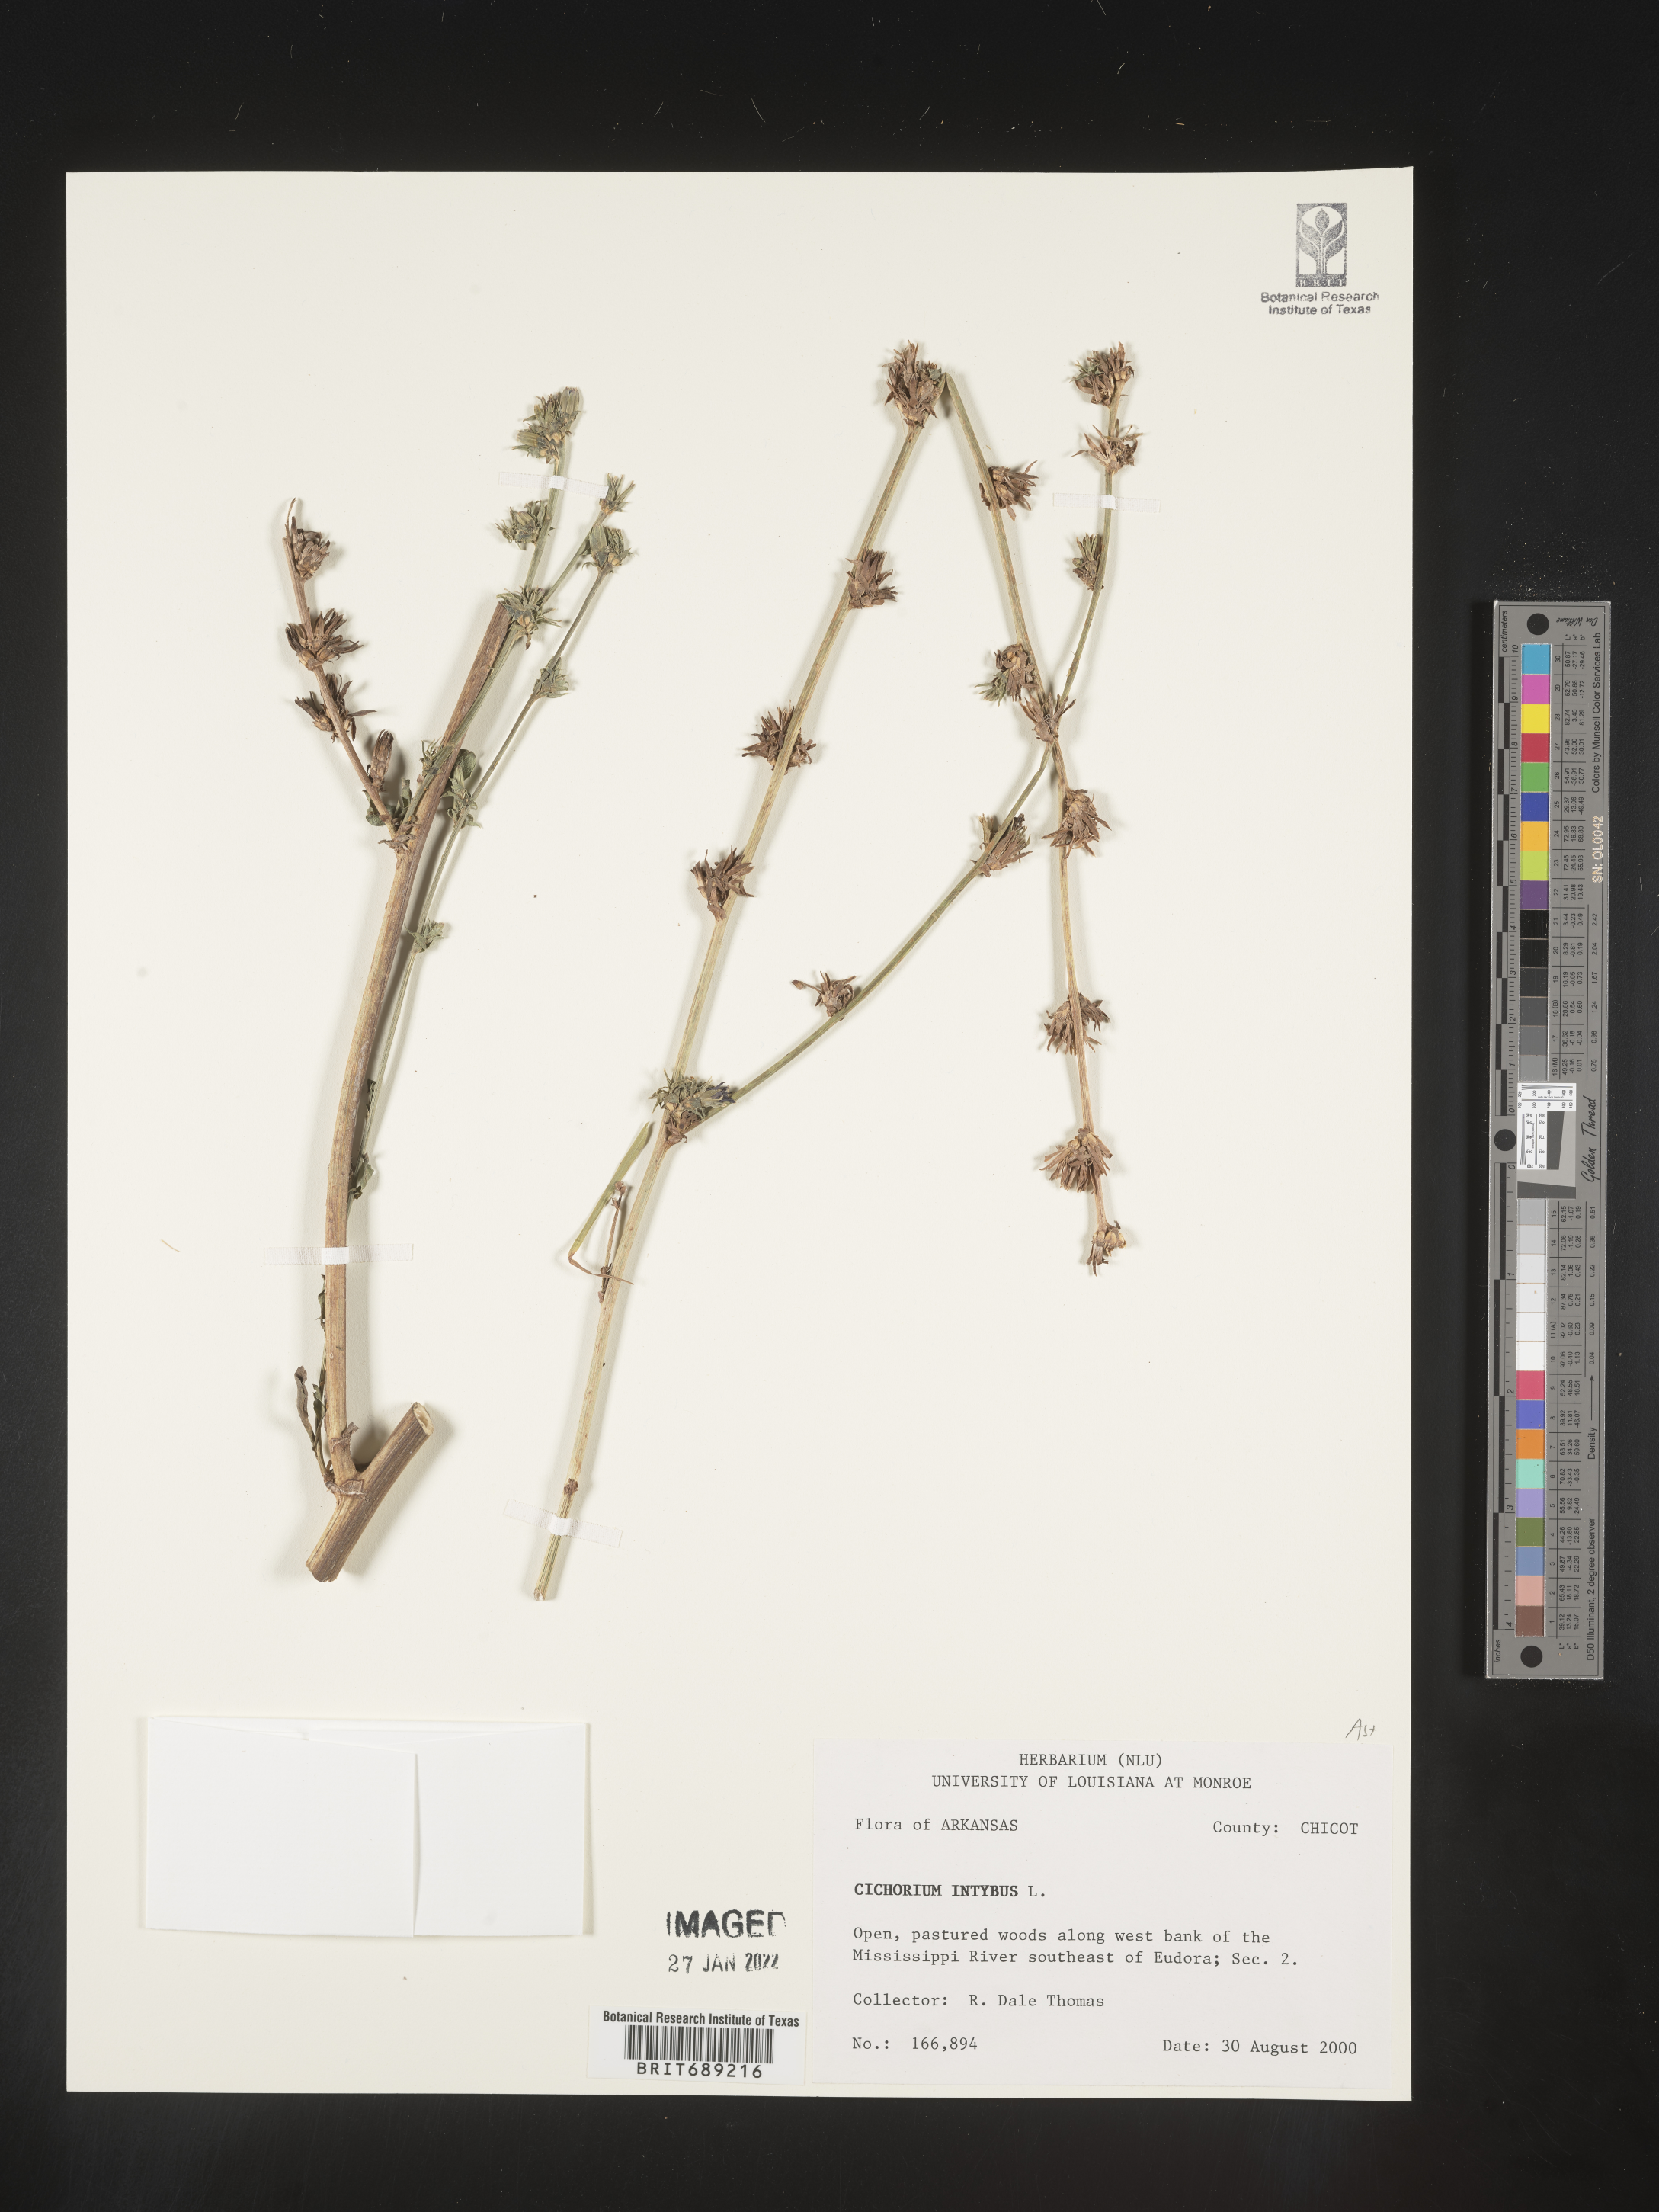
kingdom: Plantae
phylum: Tracheophyta
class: Magnoliopsida
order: Asterales
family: Asteraceae
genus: Cichorium
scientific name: Cichorium intybus
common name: Chicory
